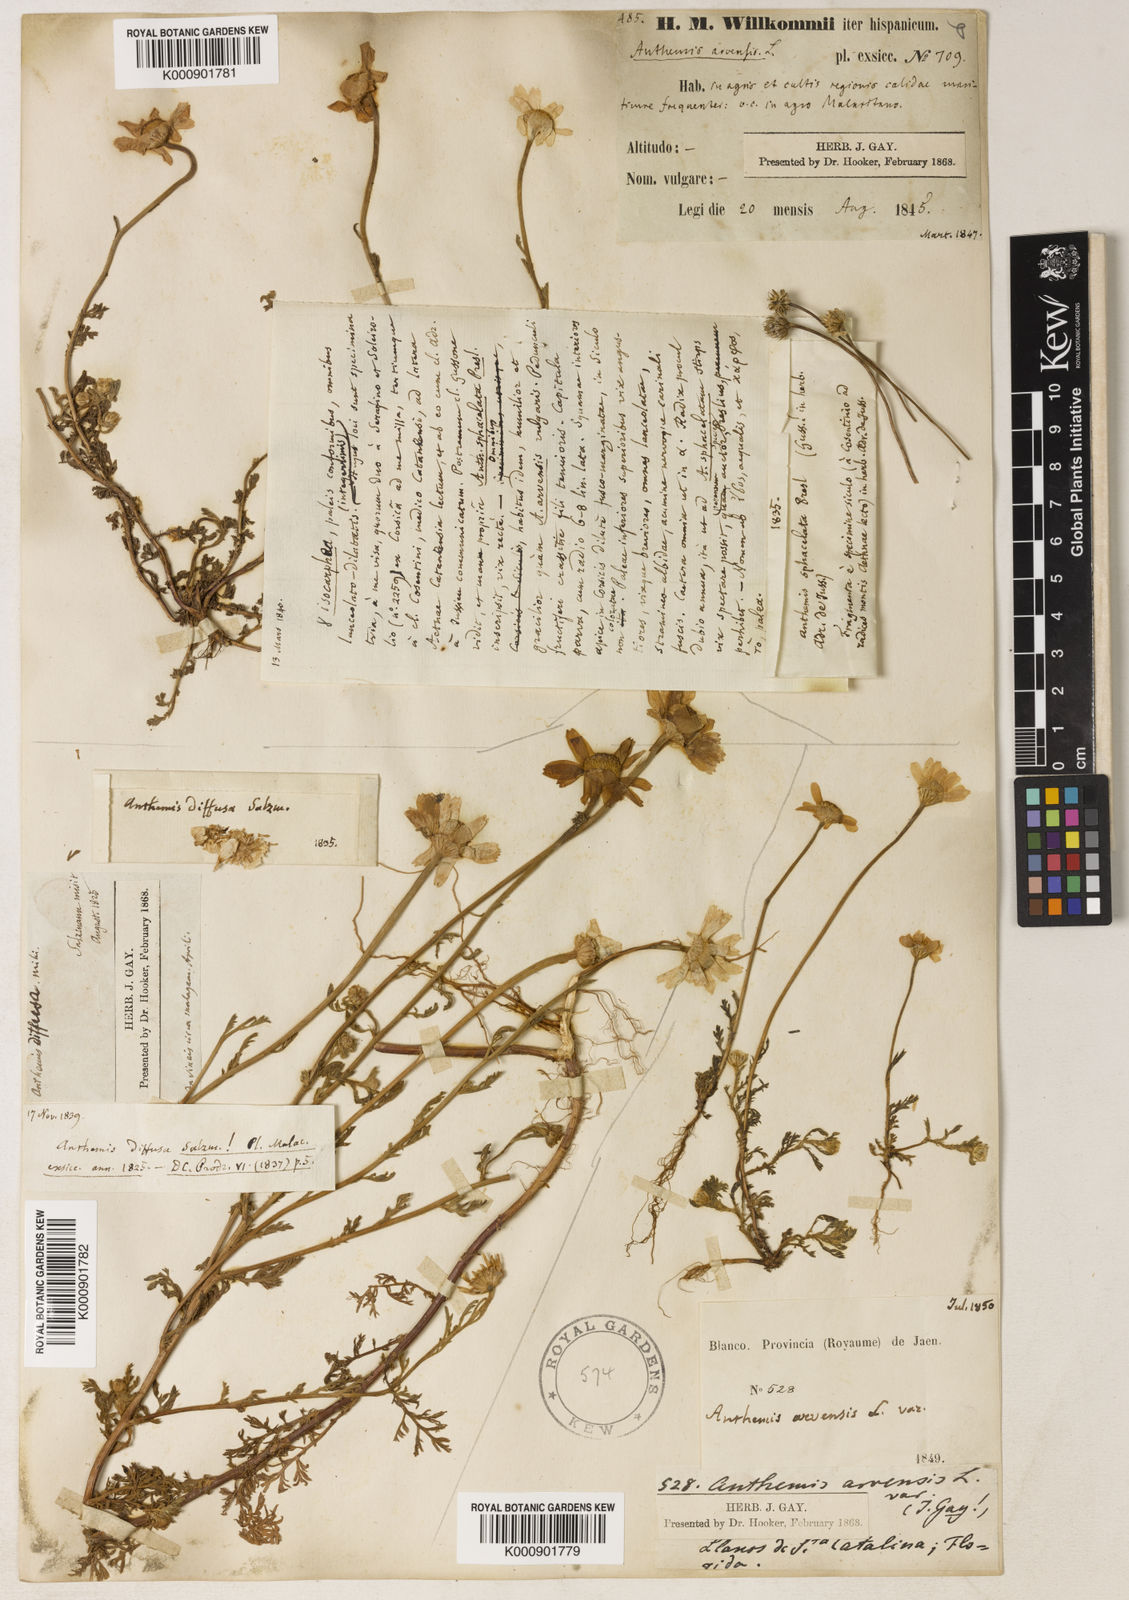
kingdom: Plantae
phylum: Tracheophyta
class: Magnoliopsida
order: Asterales
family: Asteraceae
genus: Anthemis
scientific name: Anthemis arvensis
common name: Corn chamomile
